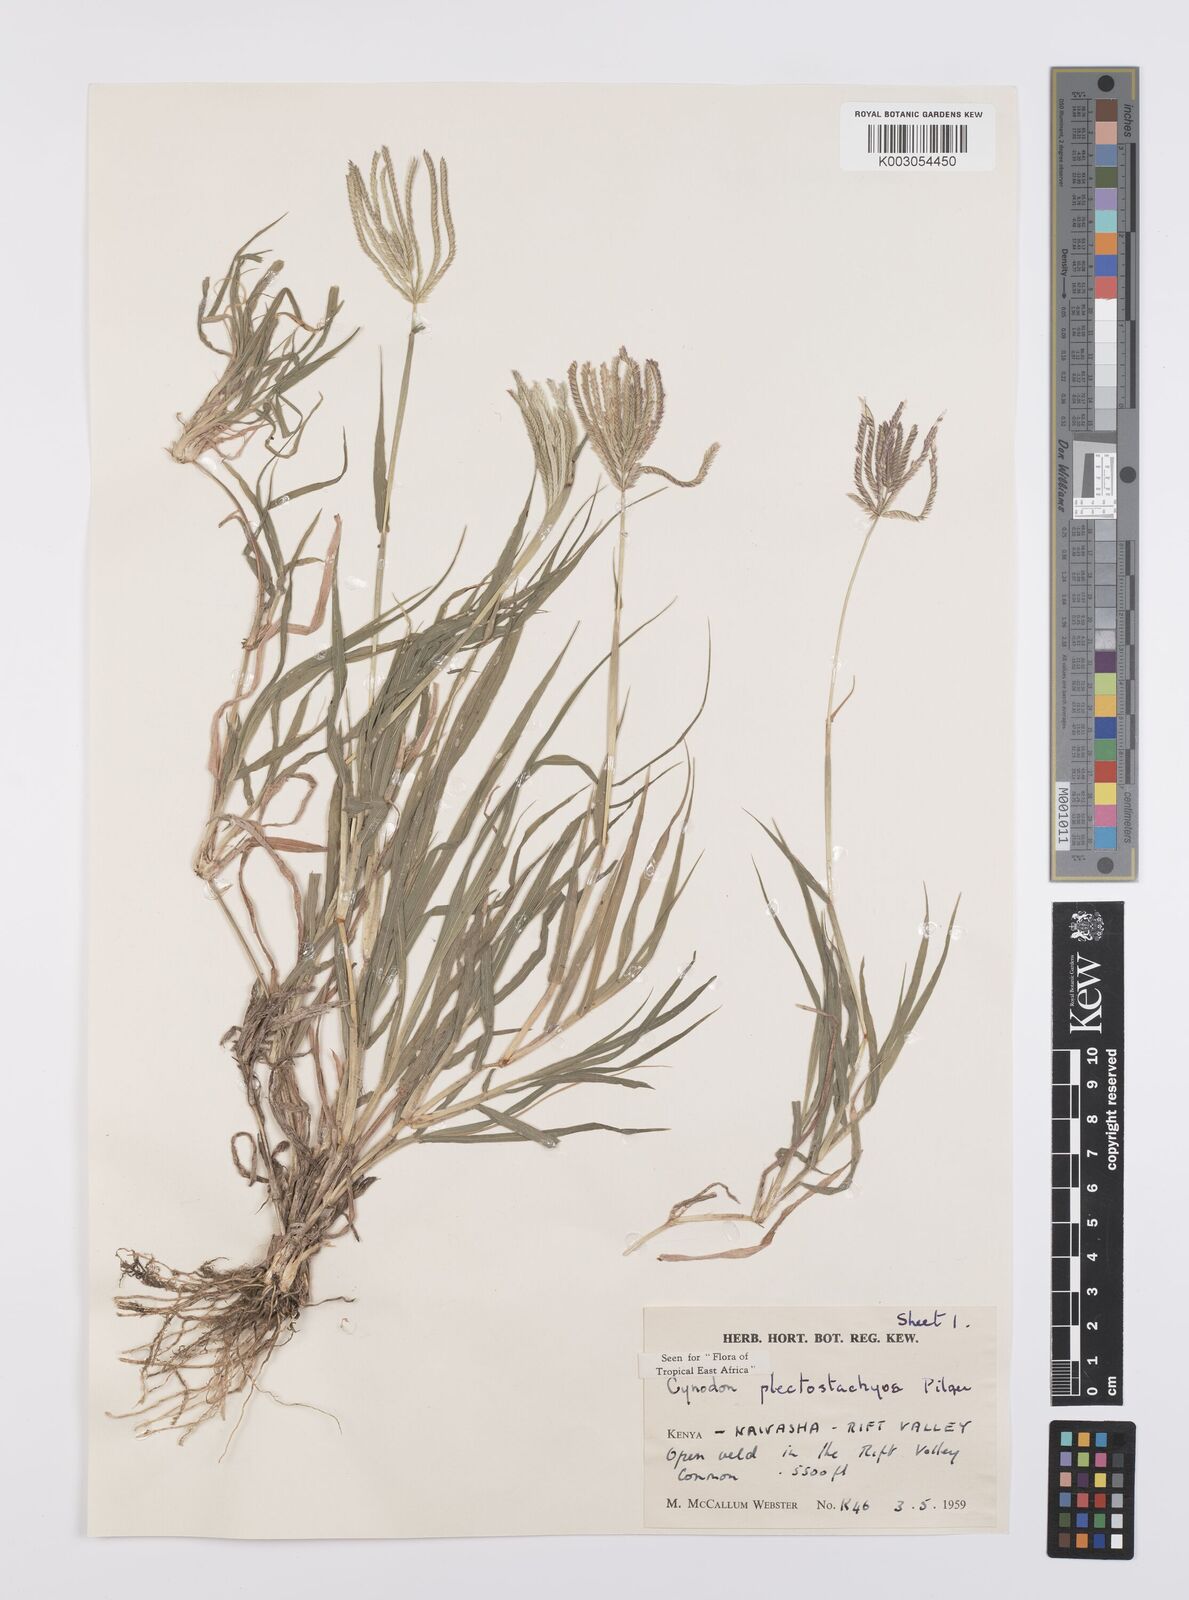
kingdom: Plantae
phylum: Tracheophyta
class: Liliopsida
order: Poales
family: Poaceae
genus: Cynodon
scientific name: Cynodon plectostachyus
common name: Stargrass
